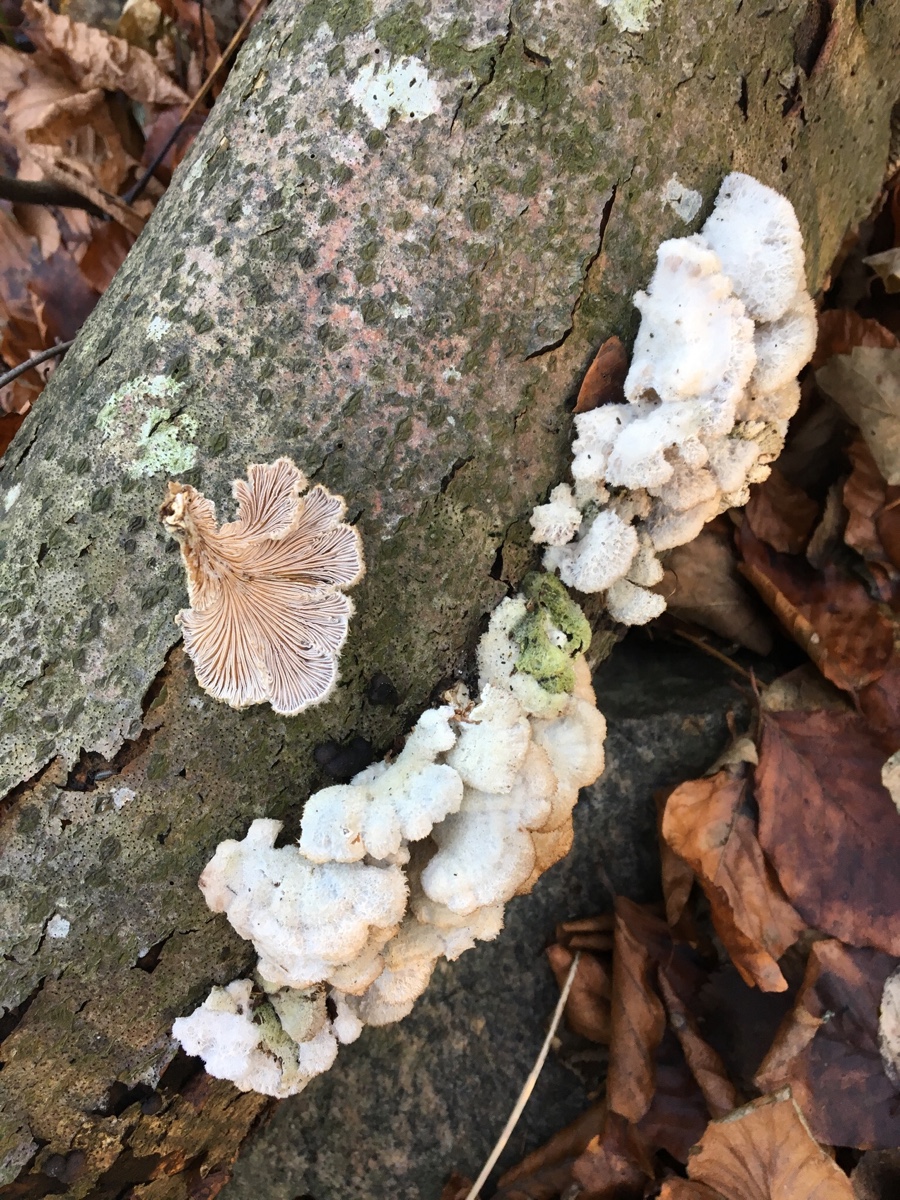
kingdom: Fungi
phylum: Basidiomycota
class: Agaricomycetes
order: Agaricales
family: Schizophyllaceae
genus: Schizophyllum
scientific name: Schizophyllum commune
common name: kløvblad
